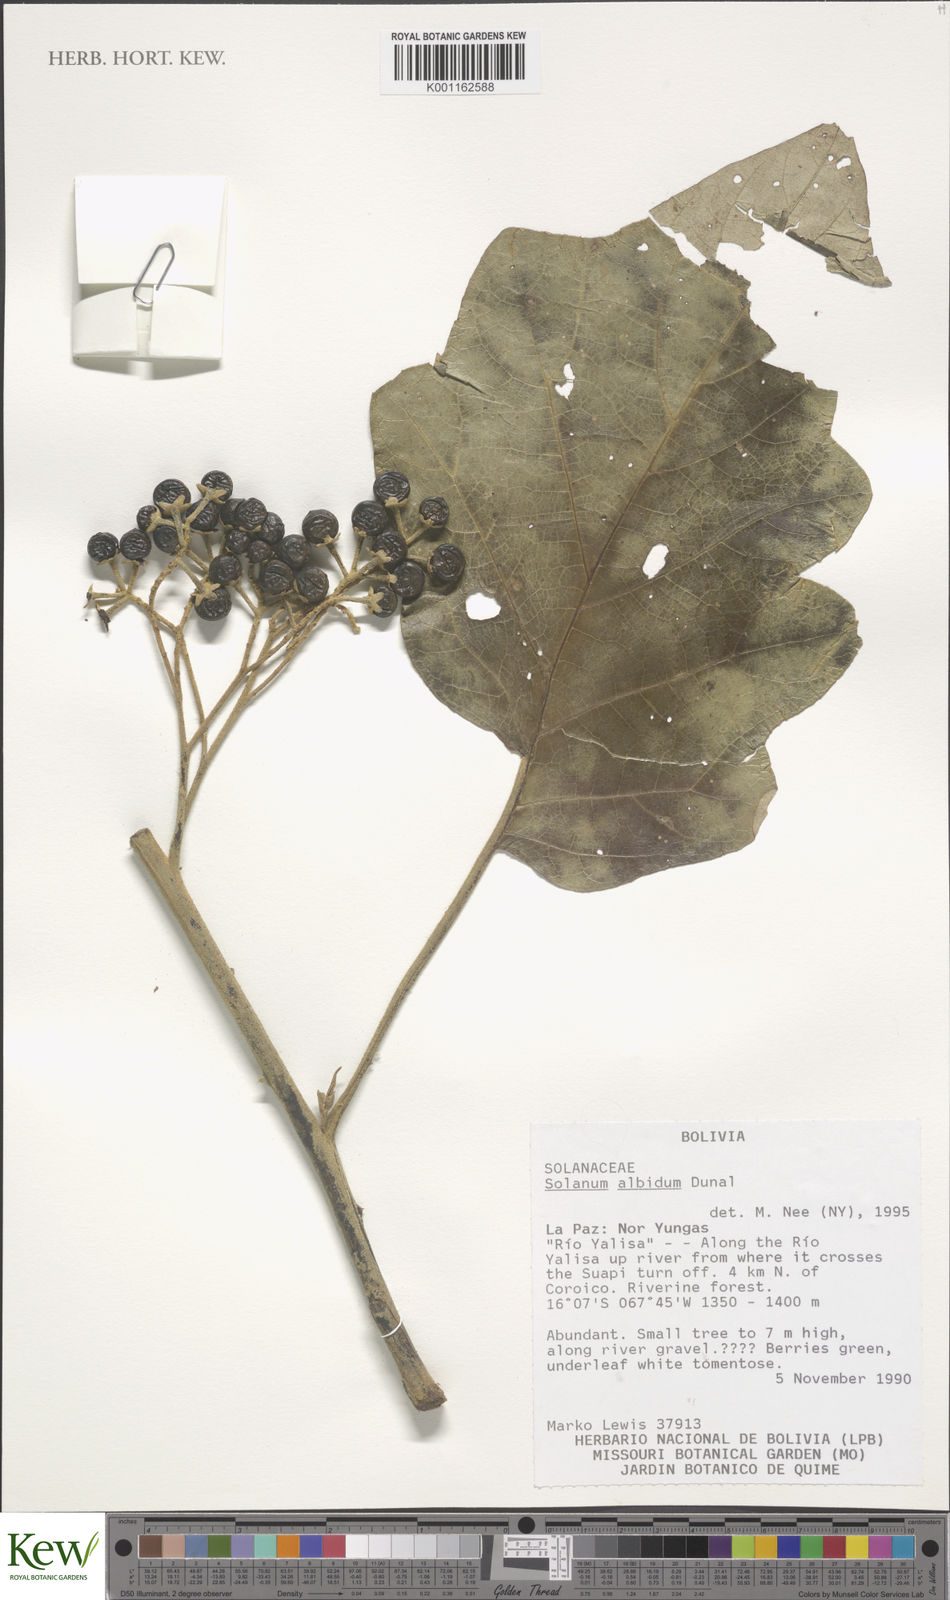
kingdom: Plantae
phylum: Tracheophyta
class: Magnoliopsida
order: Solanales
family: Solanaceae
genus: Solanum
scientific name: Solanum albidum
